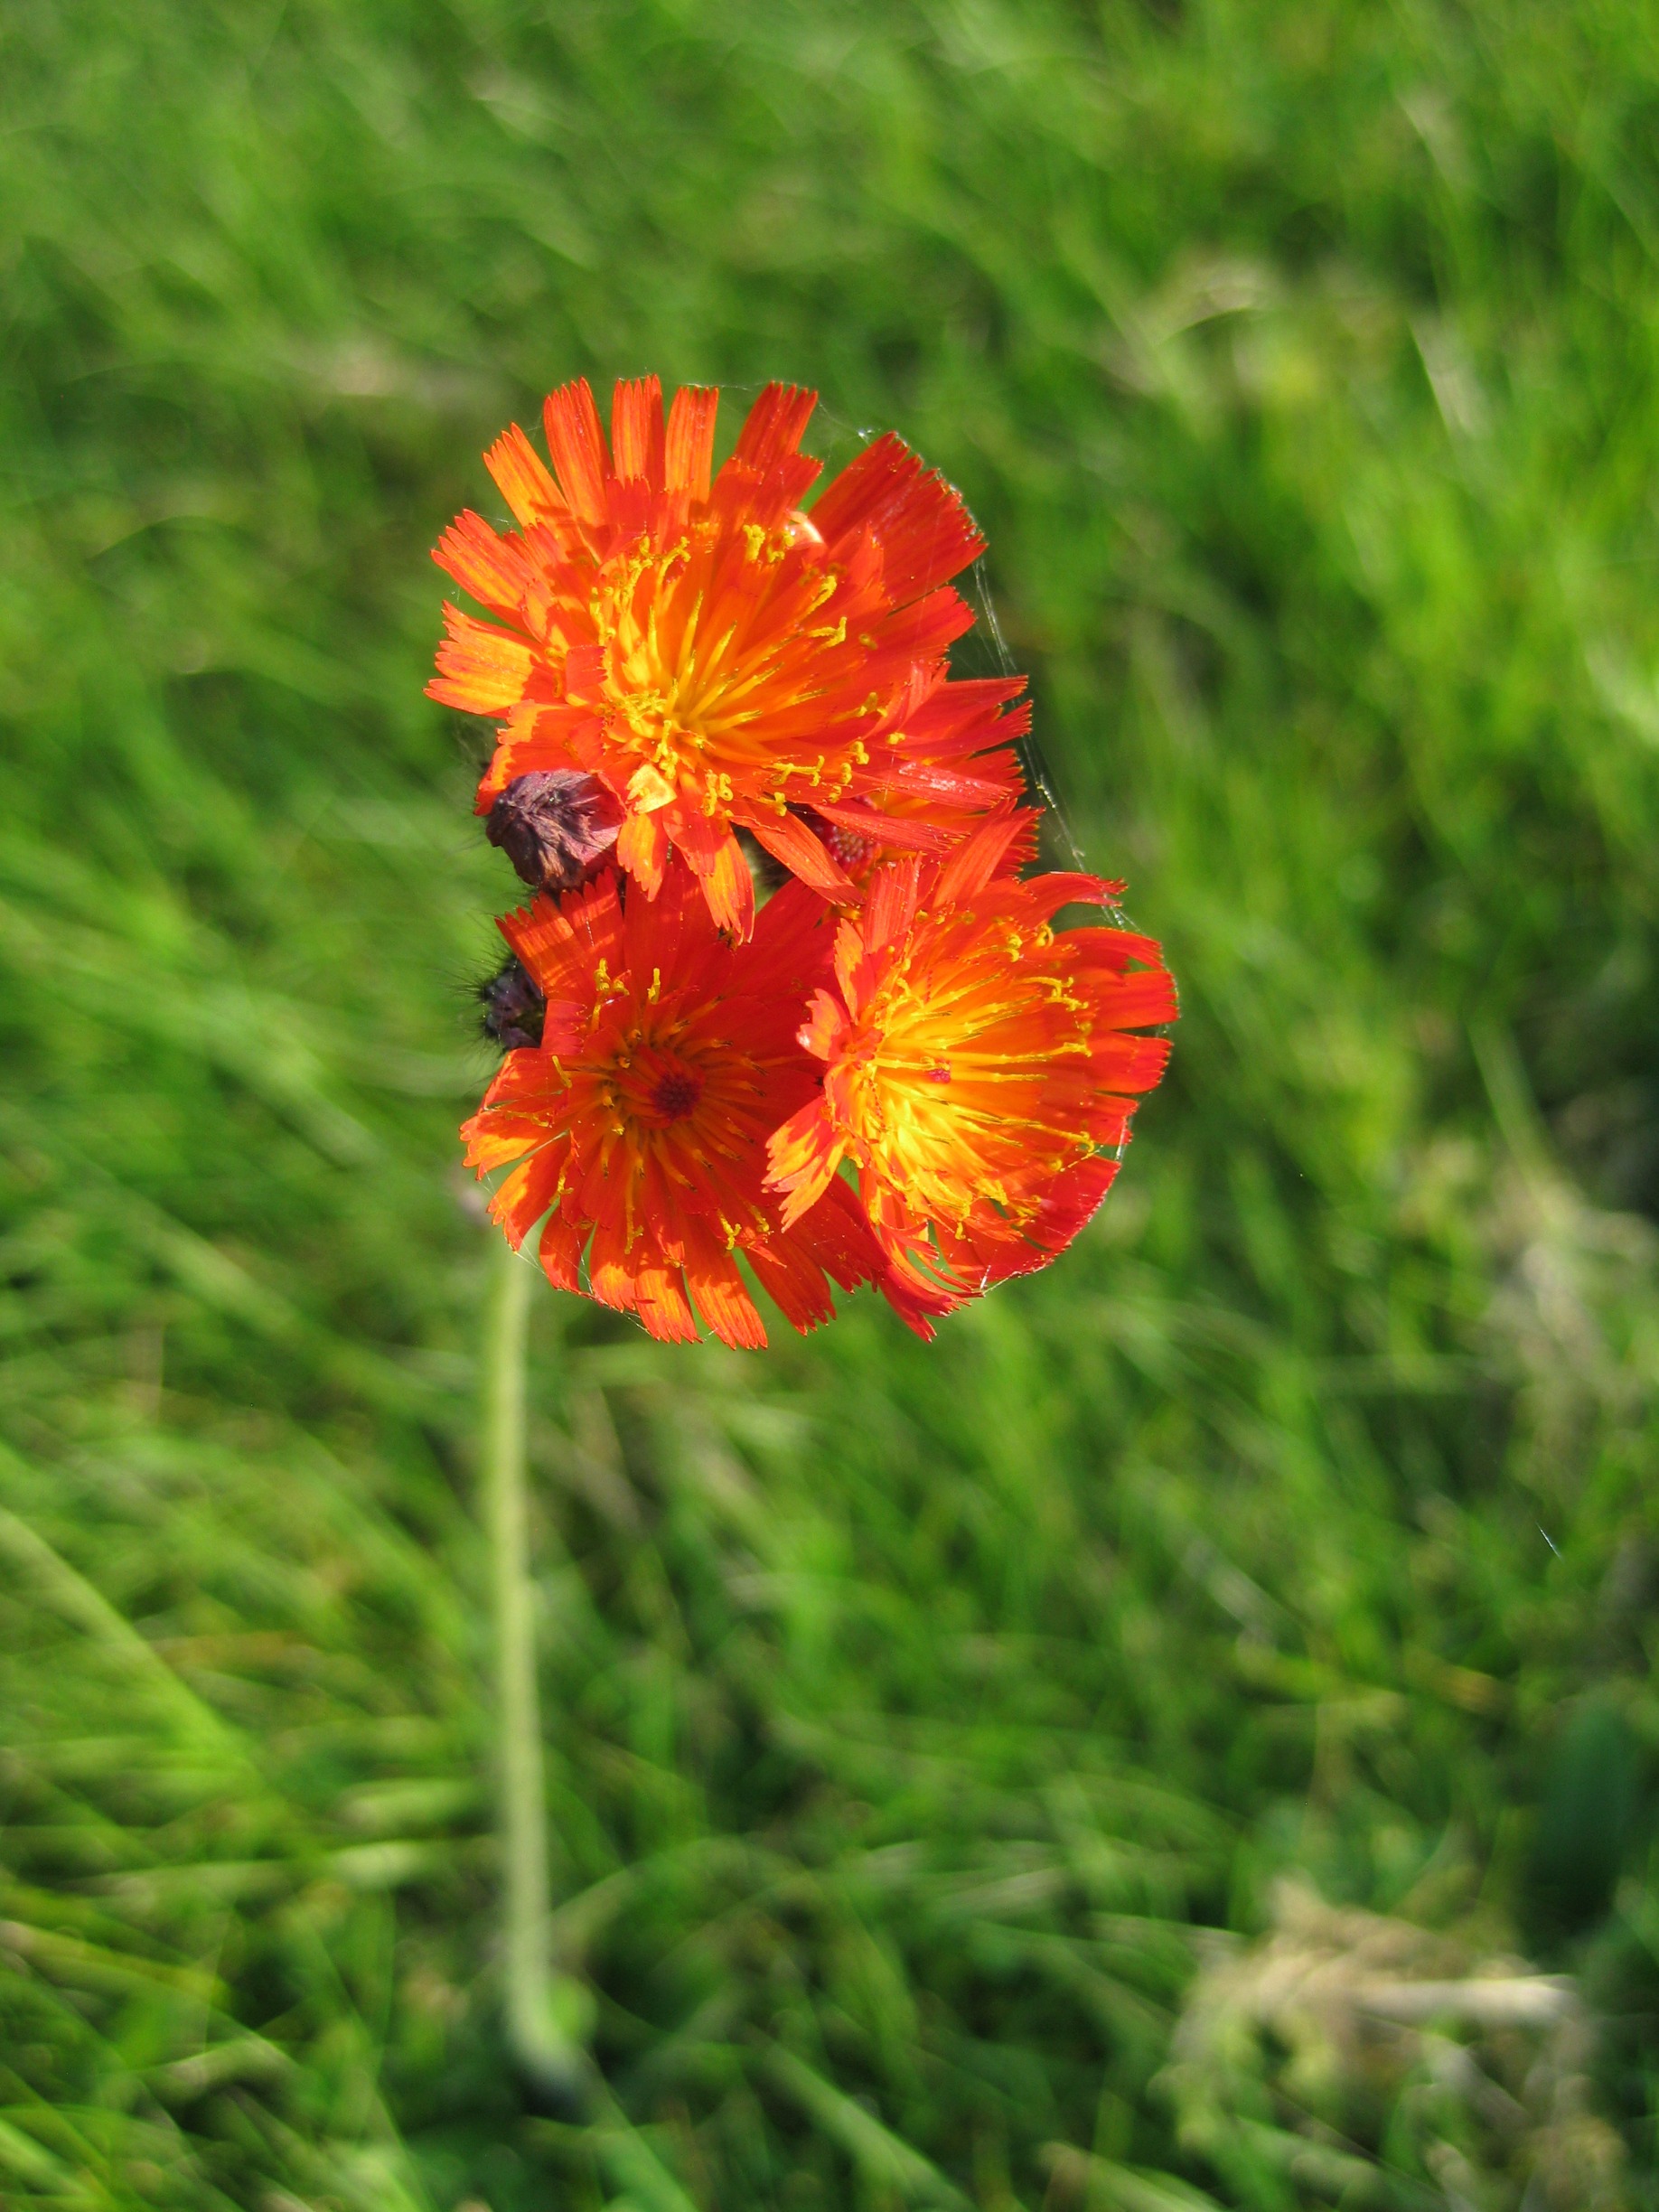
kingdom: Plantae
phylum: Tracheophyta
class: Magnoliopsida
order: Asterales
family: Asteraceae
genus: Pilosella
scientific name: Pilosella aurantiaca
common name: Pomerans-høgeurt
